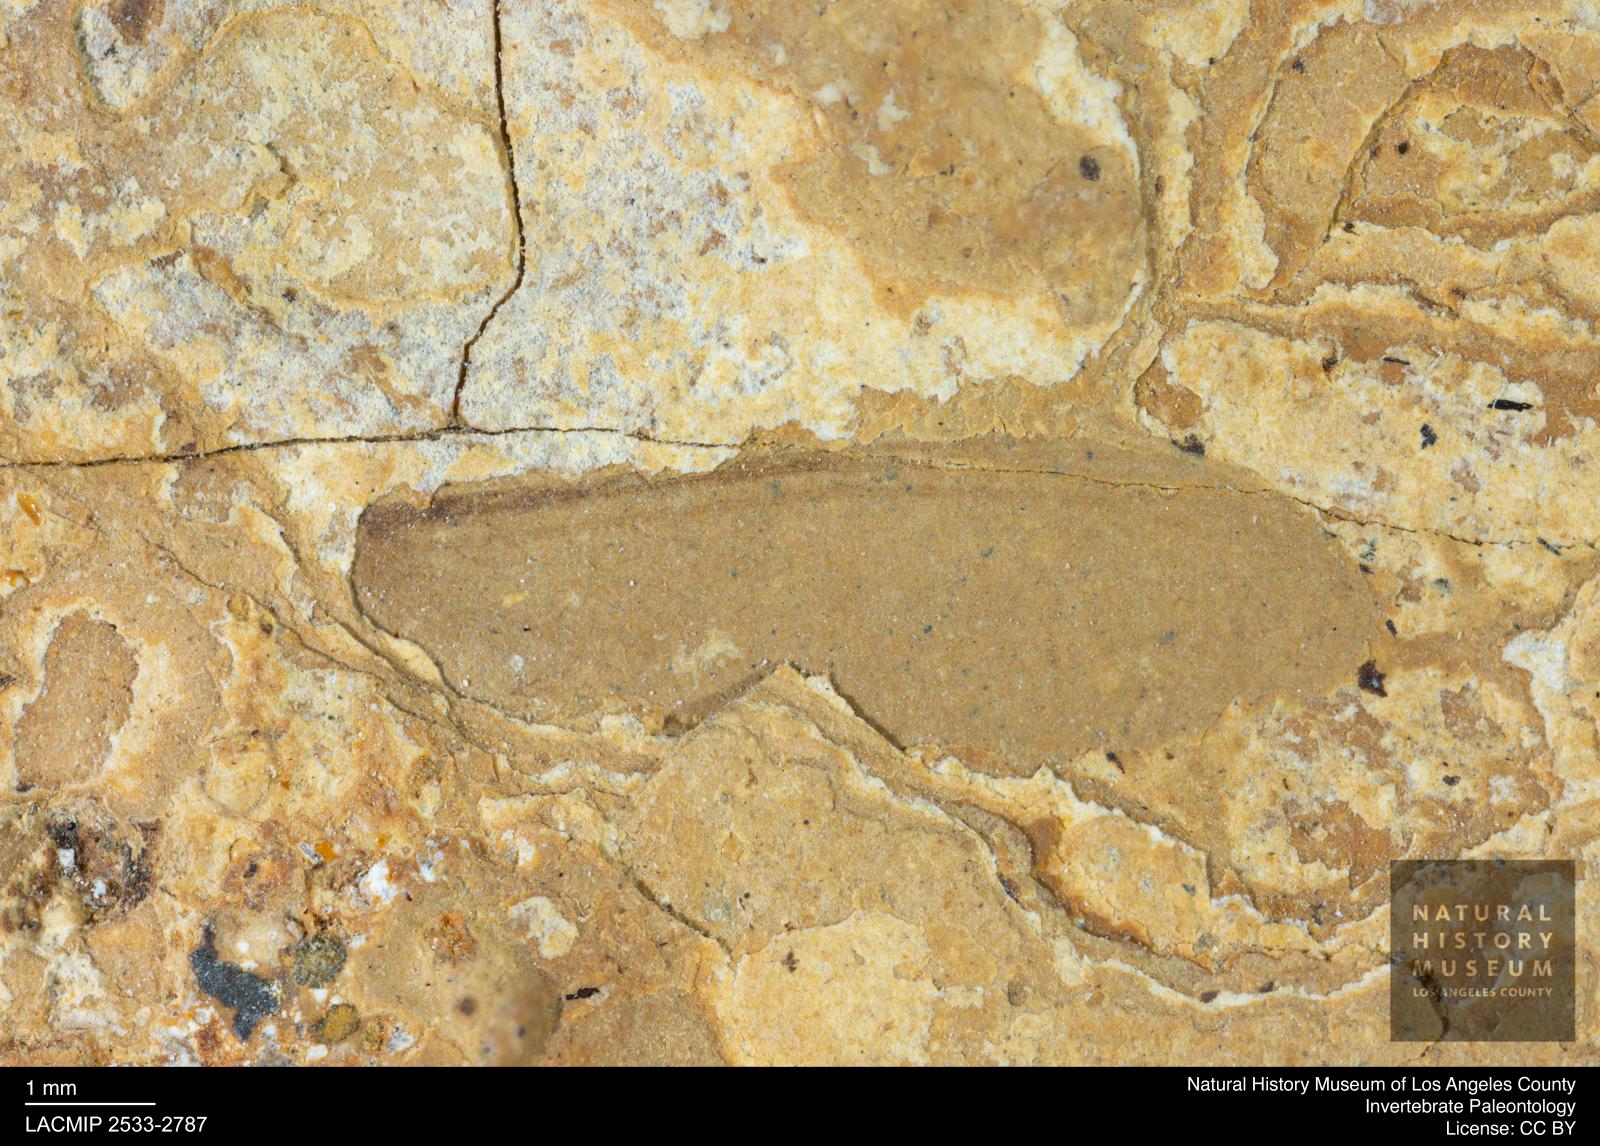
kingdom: Animalia
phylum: Arthropoda
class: Insecta
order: Blattodea
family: Kalotermitidae
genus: Kalotermes
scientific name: Kalotermes rhenanus
